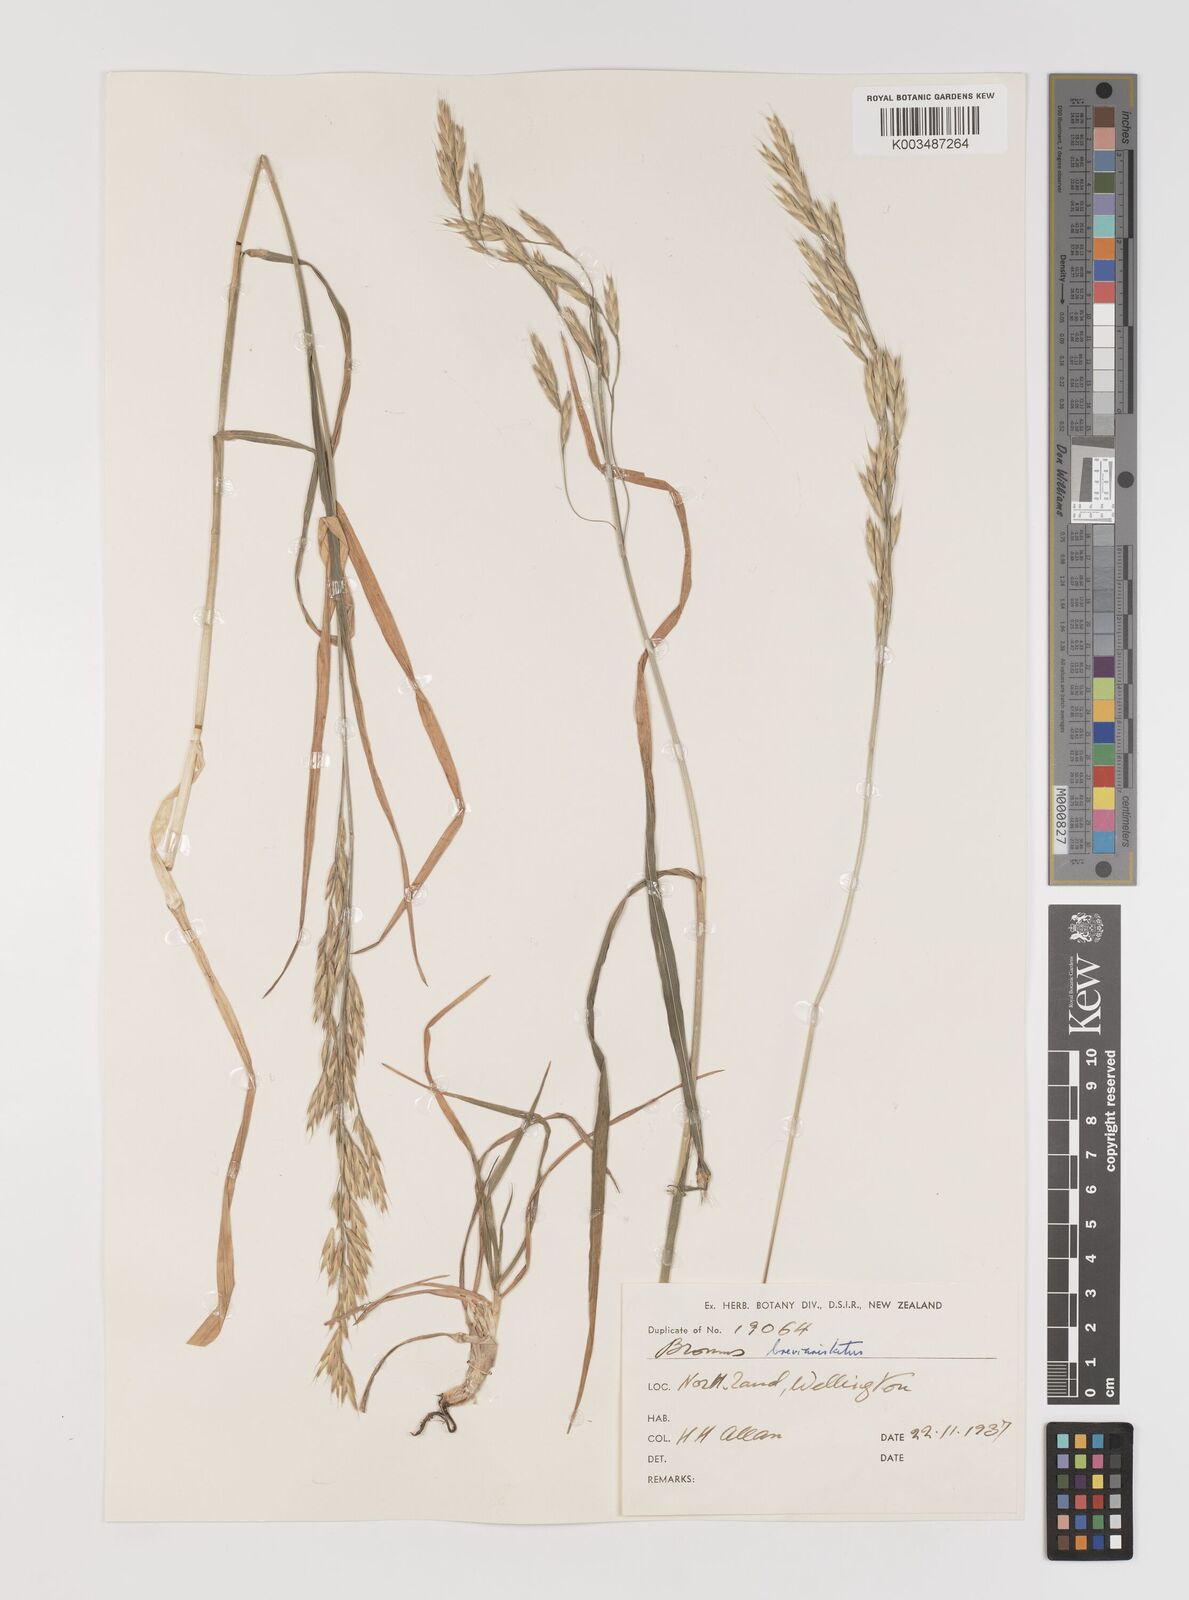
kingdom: Plantae
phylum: Tracheophyta
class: Liliopsida
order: Poales
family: Poaceae
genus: Bromus
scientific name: Bromus marginatus
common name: Western brome
